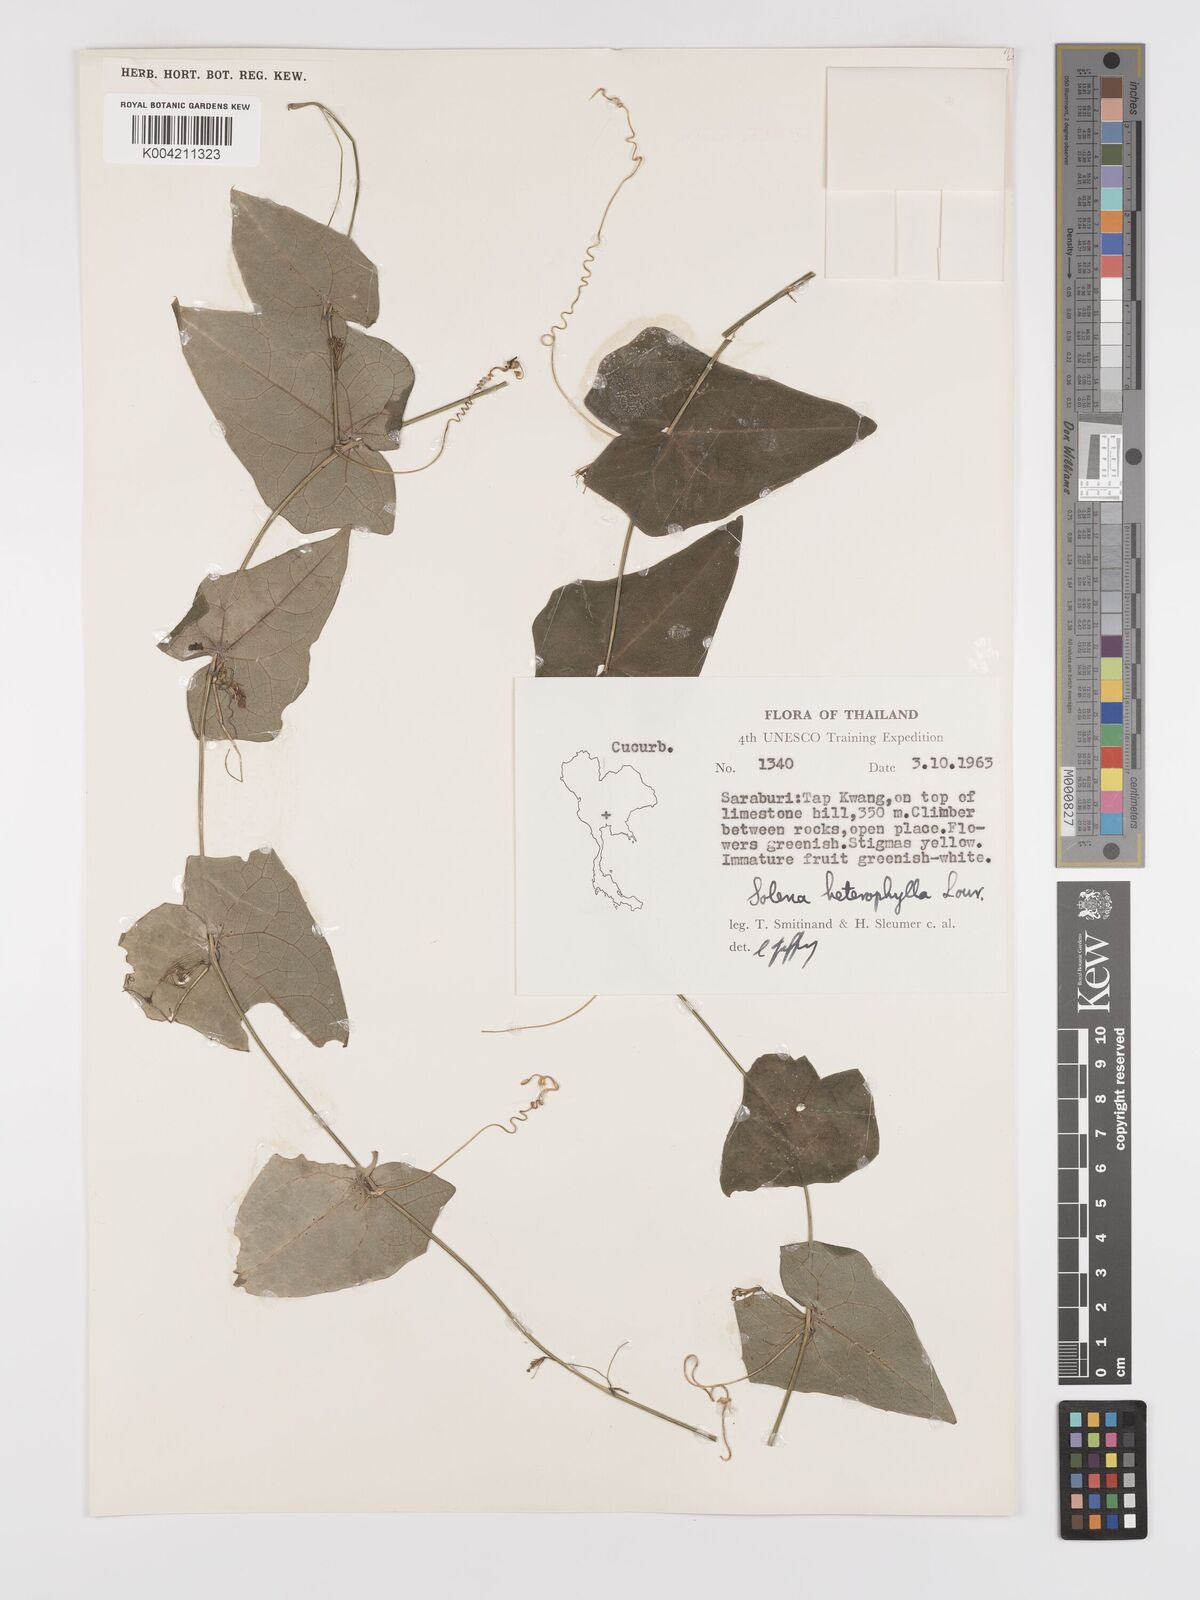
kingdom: Plantae
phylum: Tracheophyta
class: Magnoliopsida
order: Cucurbitales
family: Cucurbitaceae
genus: Solena
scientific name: Solena amplexicaulis
